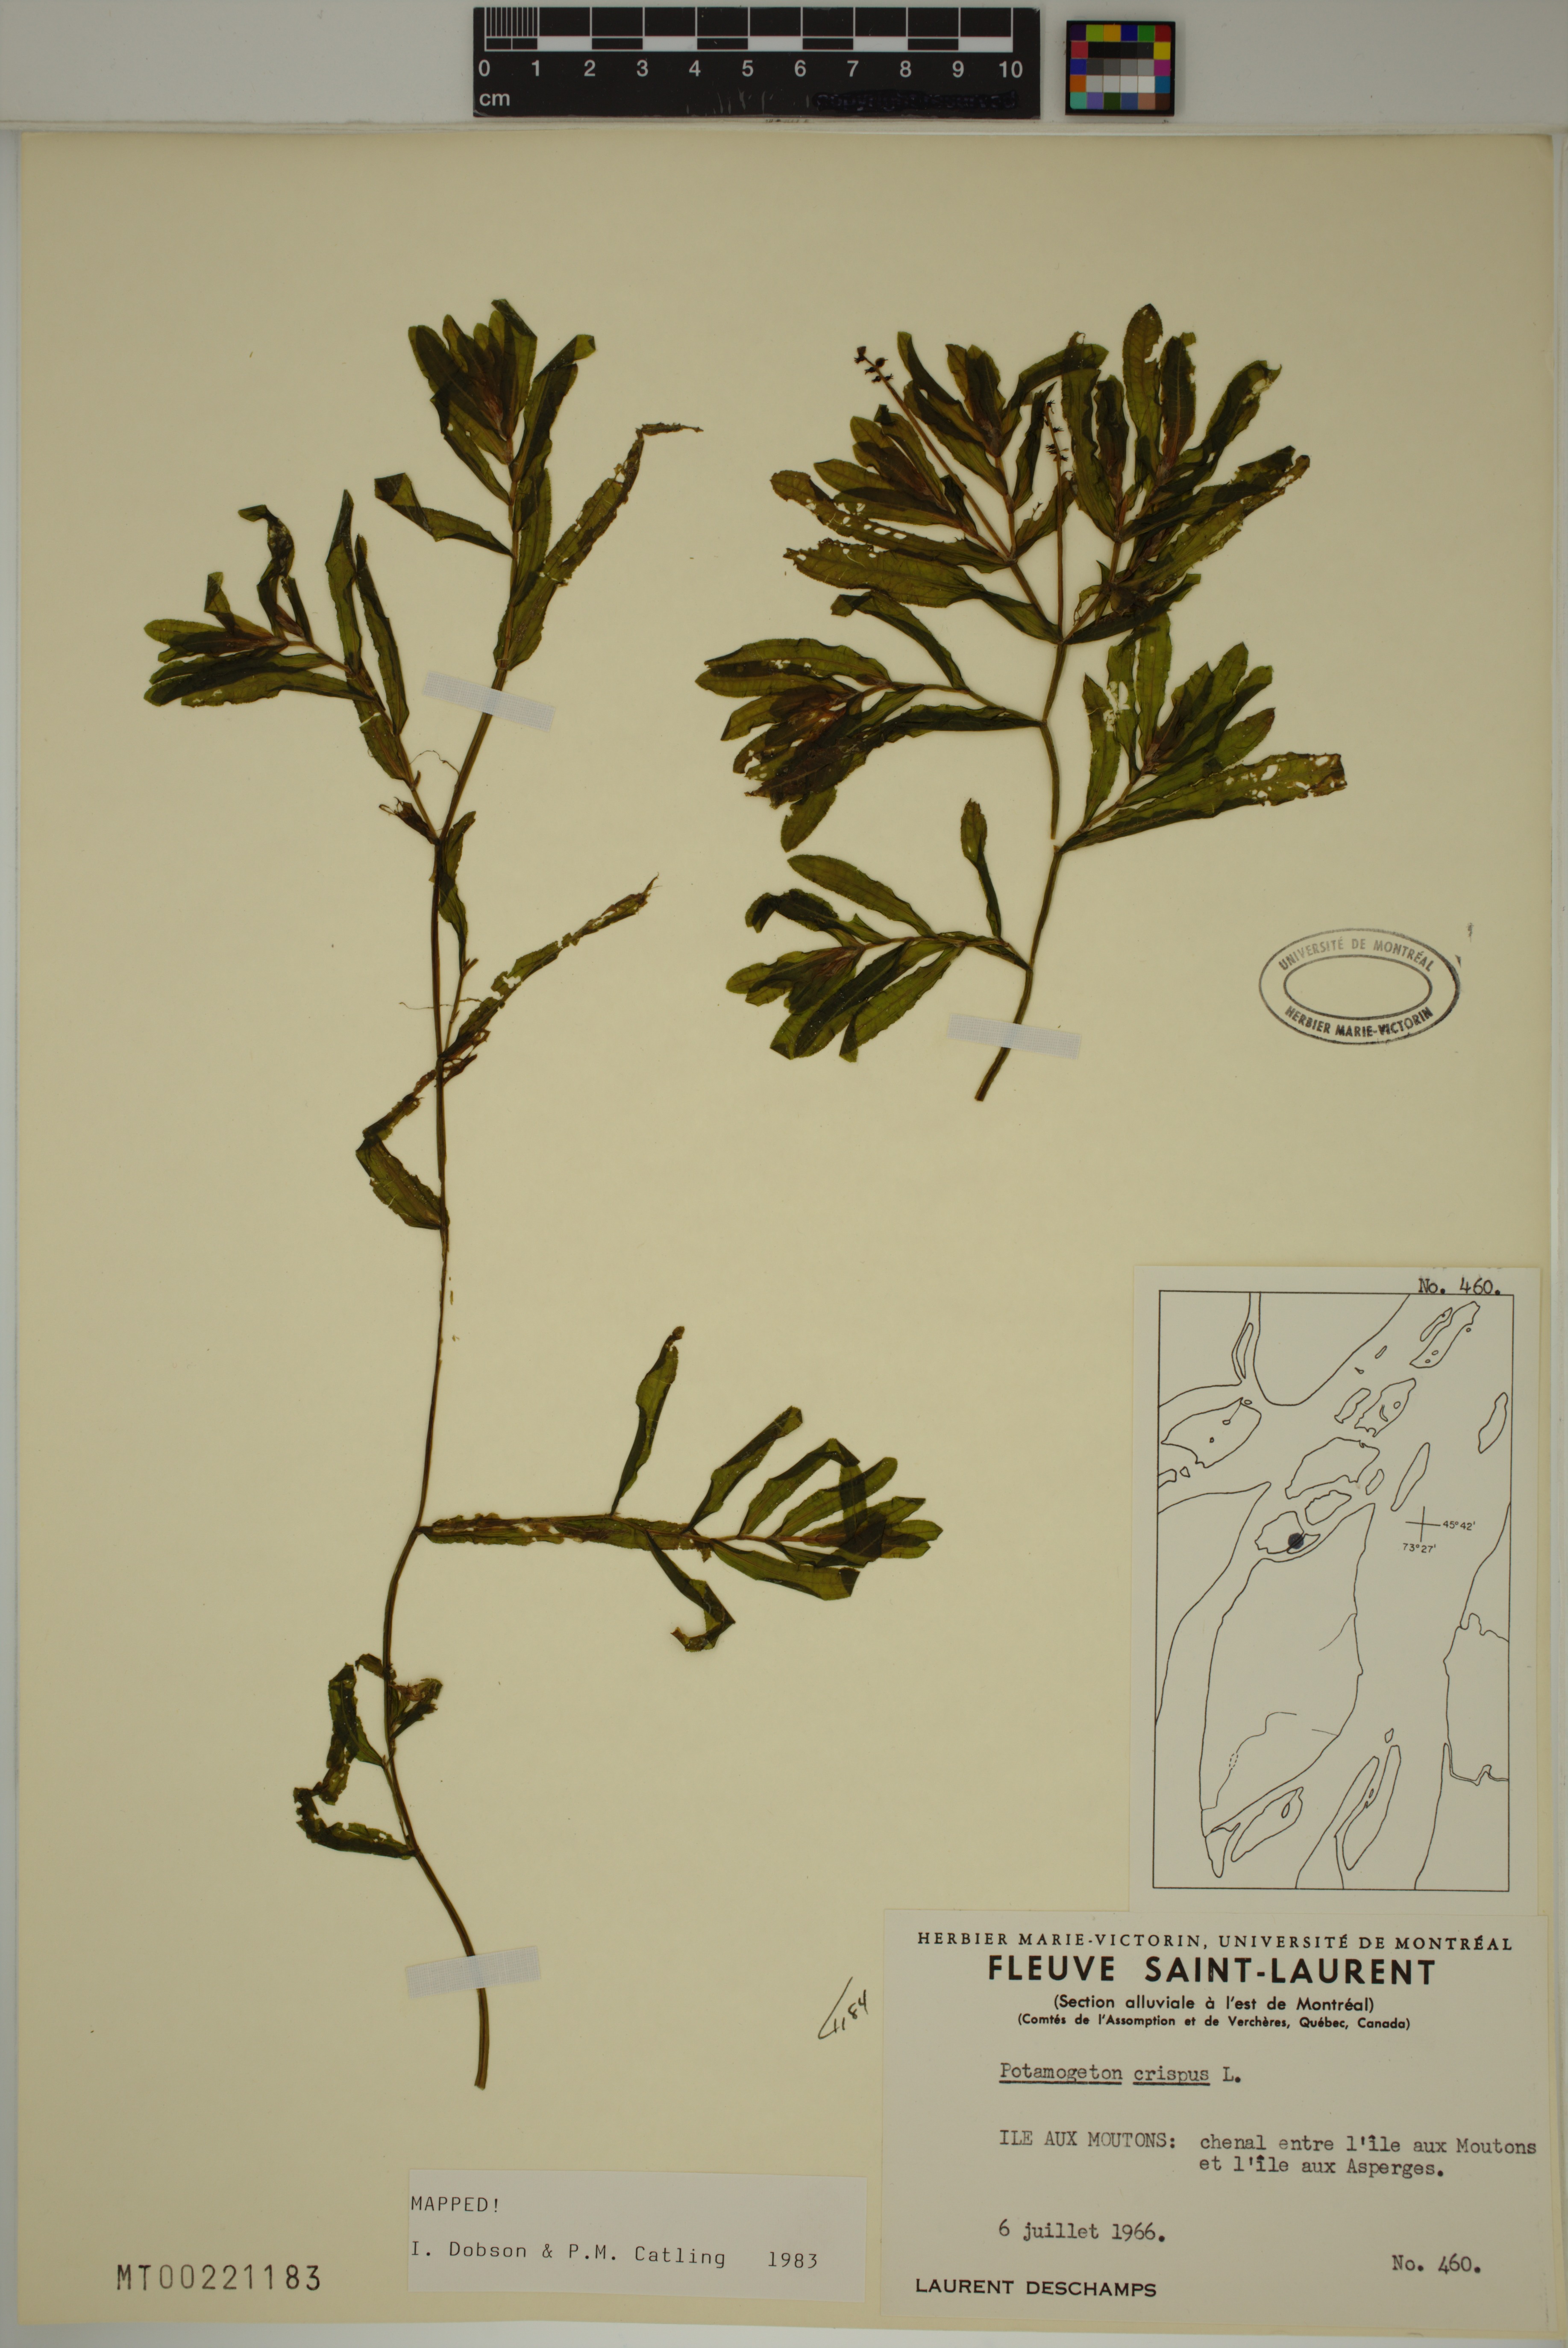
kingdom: Plantae
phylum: Tracheophyta
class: Liliopsida
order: Alismatales
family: Potamogetonaceae
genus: Potamogeton
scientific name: Potamogeton crispus
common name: Curled pondweed
